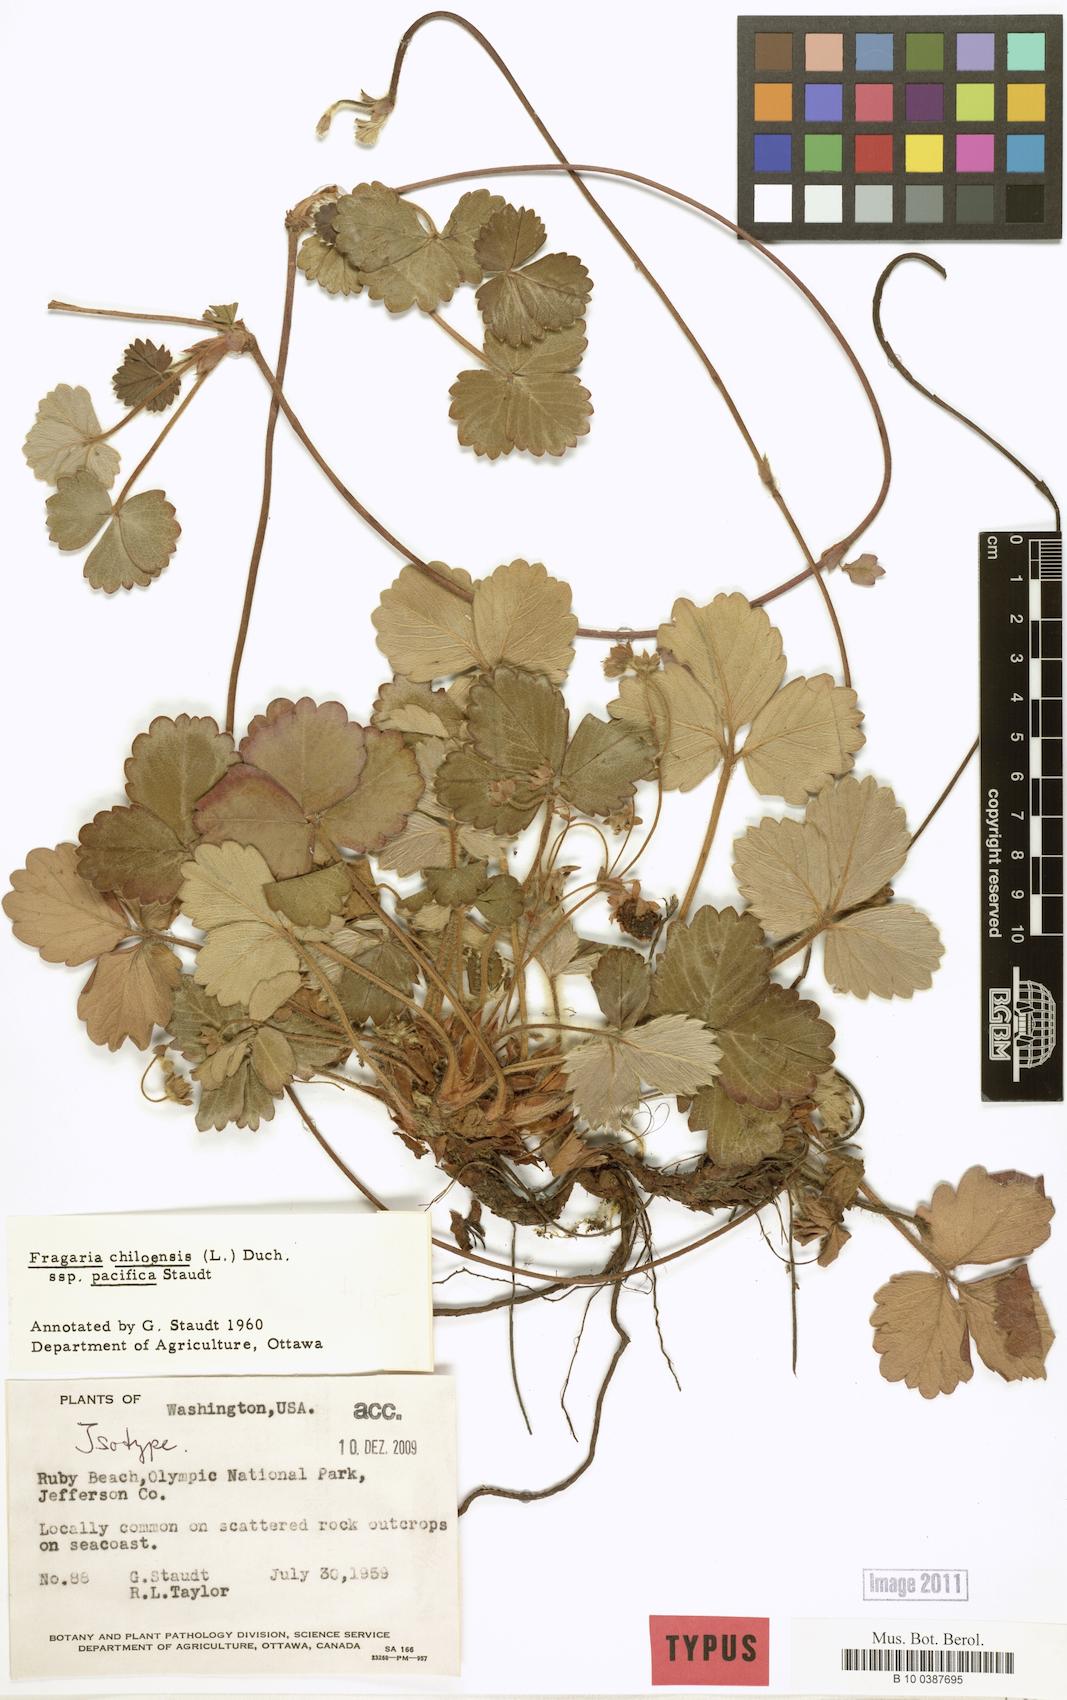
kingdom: Plantae
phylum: Tracheophyta
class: Magnoliopsida
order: Rosales
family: Rosaceae
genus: Fragaria
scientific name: Fragaria chiloensis
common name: Beach strawberry
